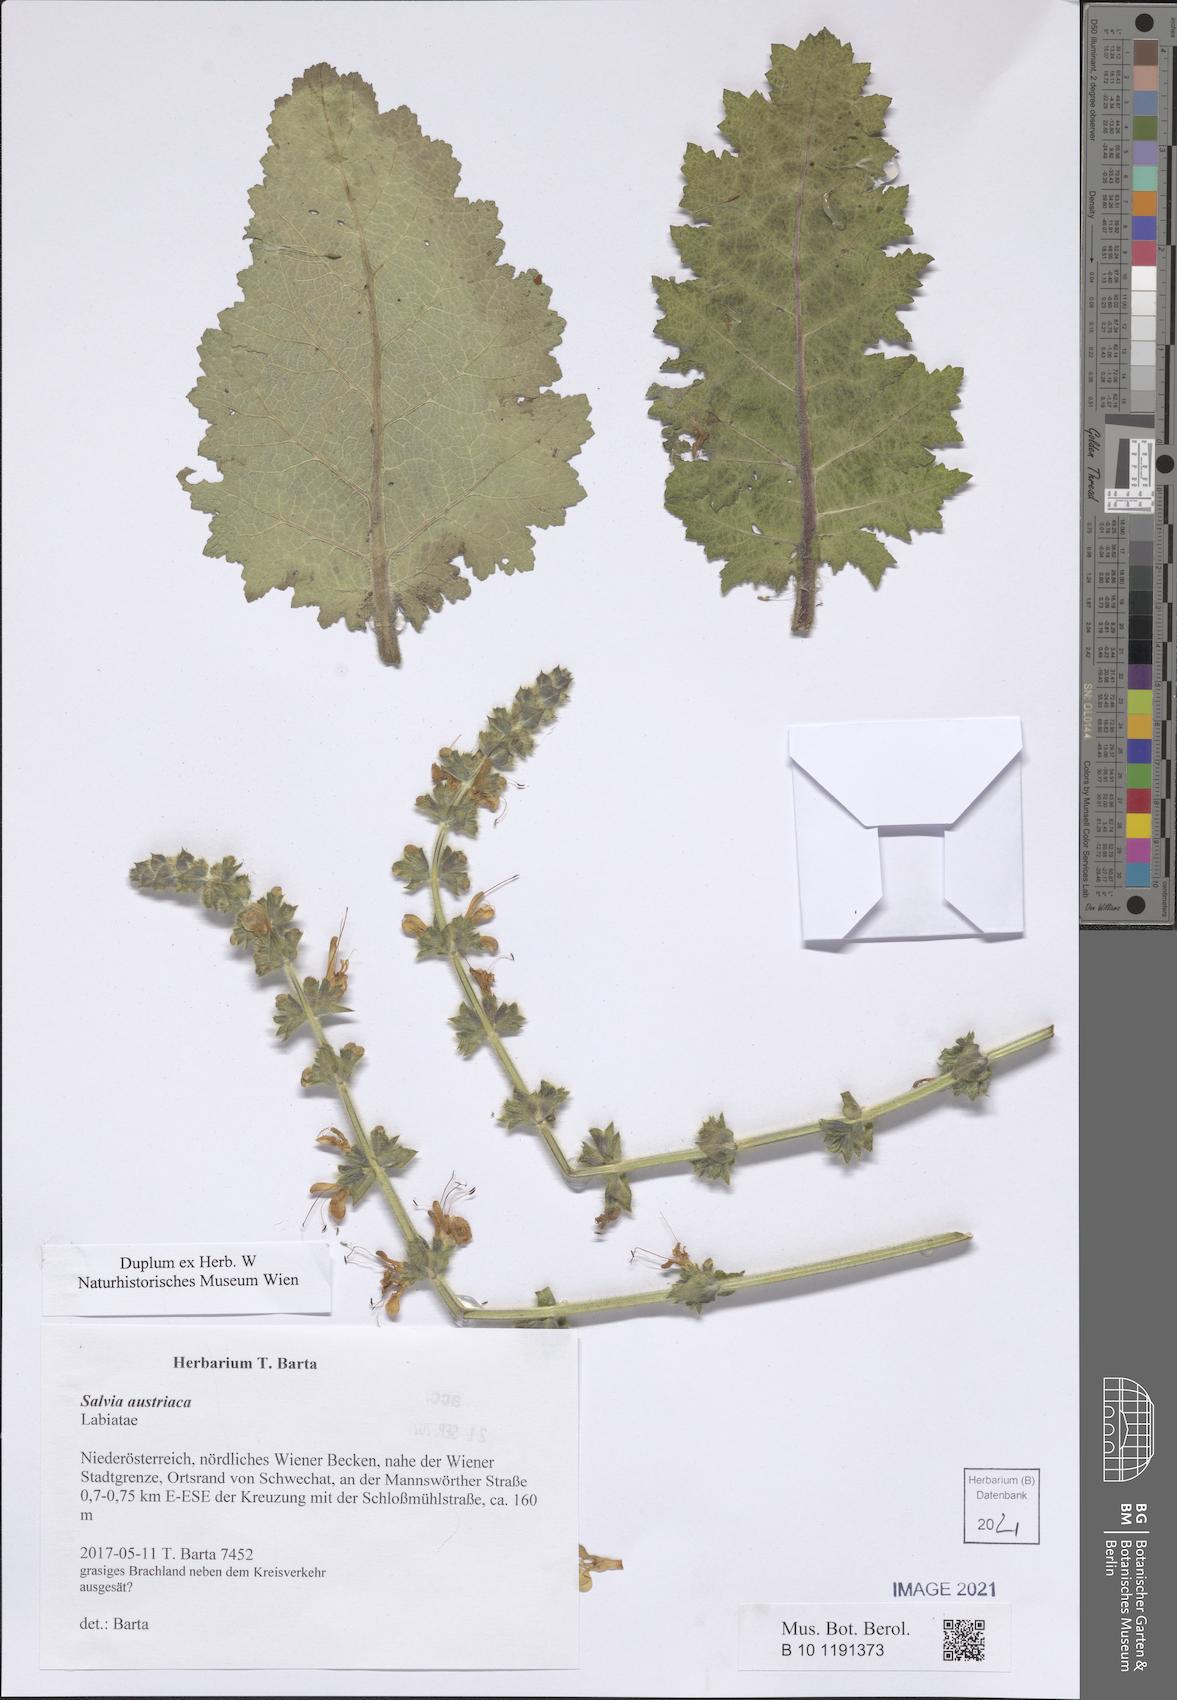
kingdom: Plantae
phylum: Tracheophyta
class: Magnoliopsida
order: Lamiales
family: Lamiaceae
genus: Salvia
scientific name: Salvia austriaca
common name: Austrian sage
